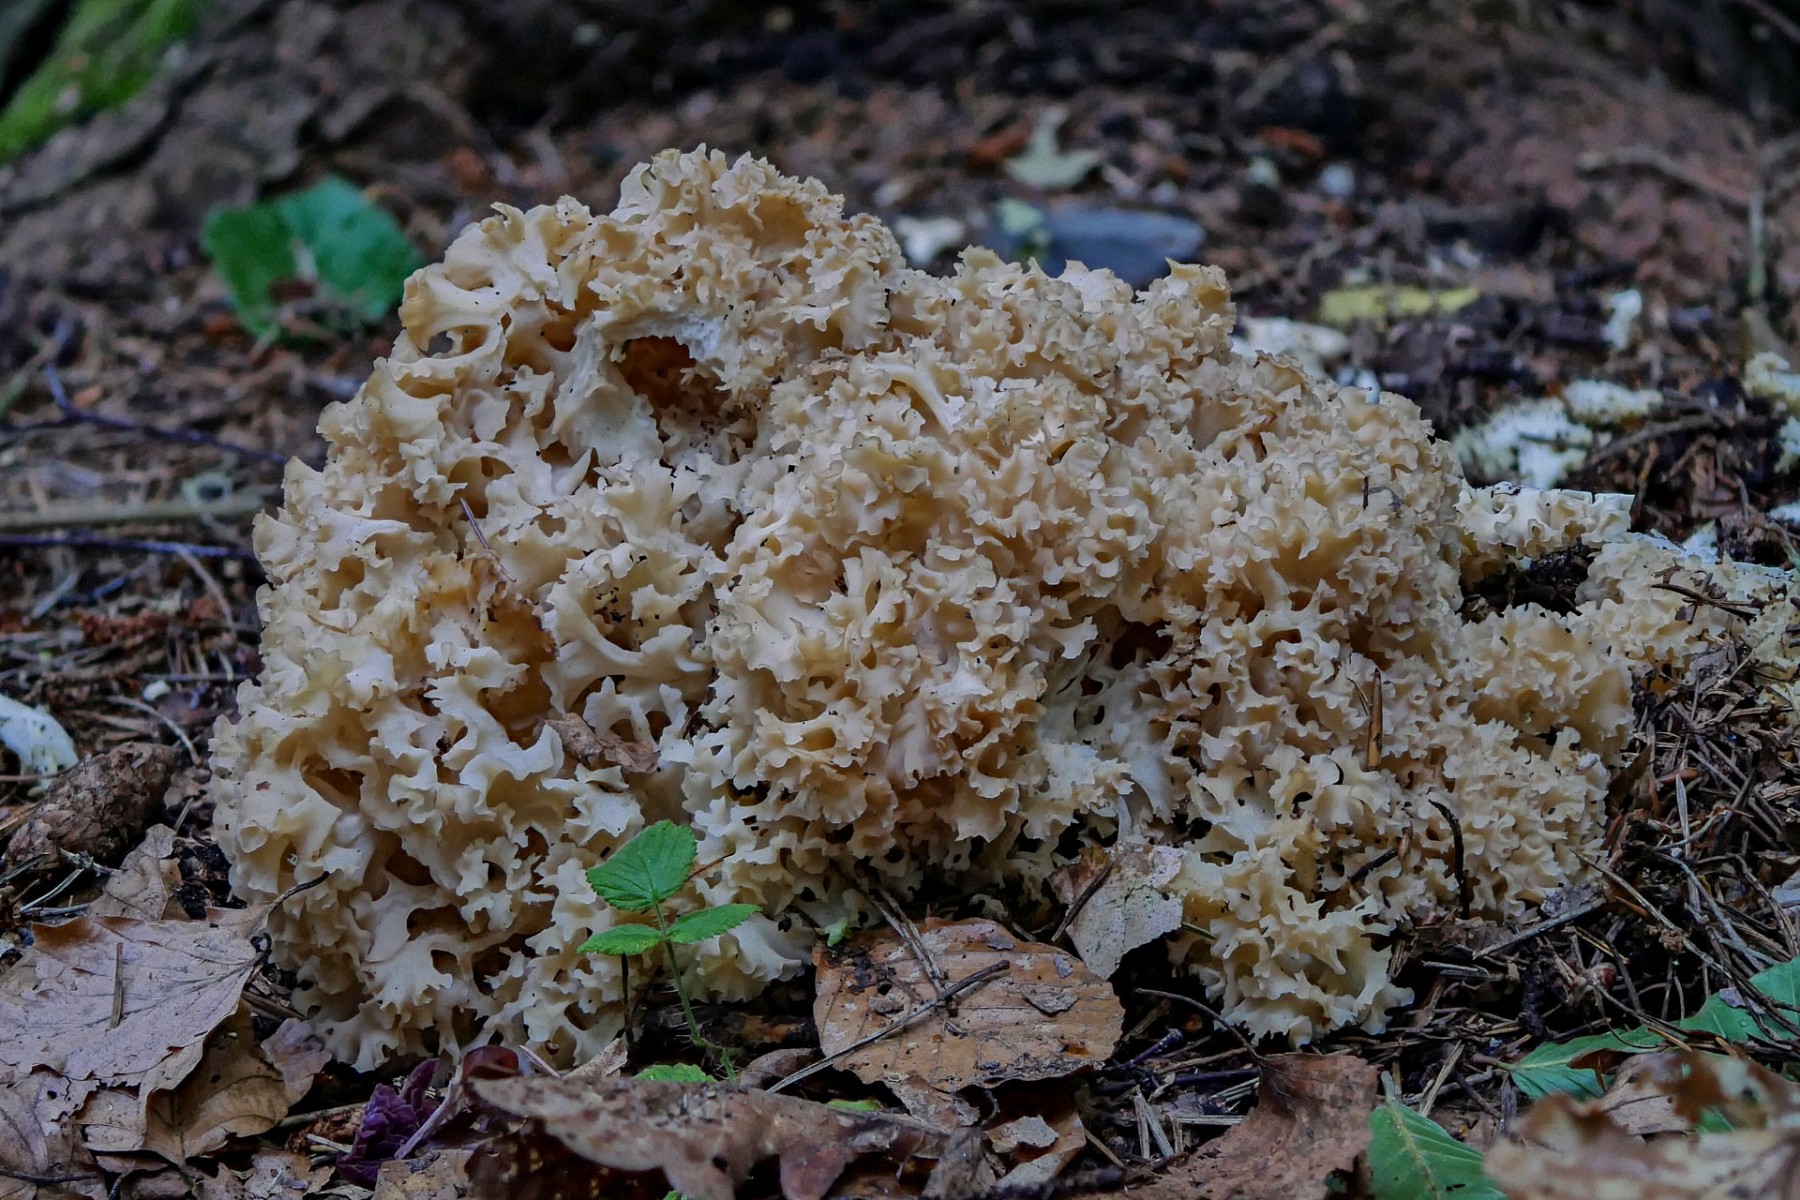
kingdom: Fungi
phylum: Basidiomycota
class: Agaricomycetes
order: Polyporales
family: Sparassidaceae
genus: Sparassis
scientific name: Sparassis crispa
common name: kruset blomkålssvamp
